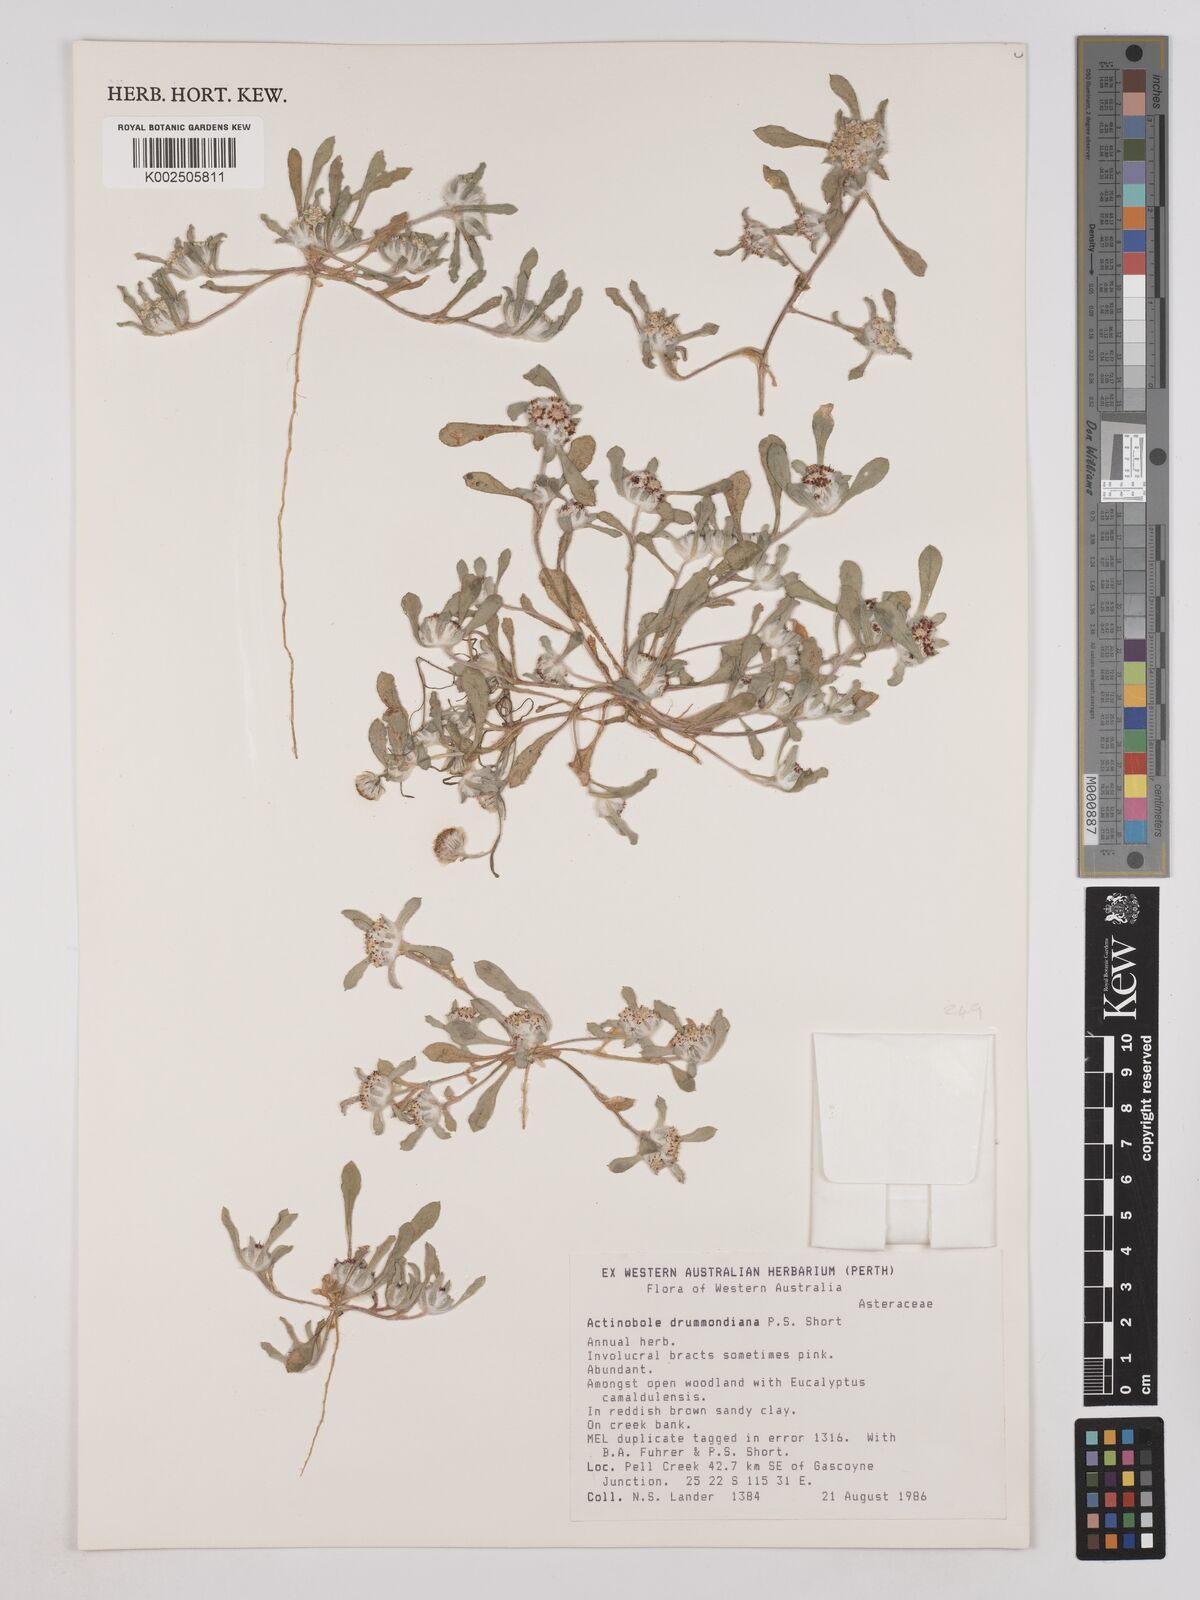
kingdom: Plantae
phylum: Tracheophyta
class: Magnoliopsida
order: Asterales
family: Asteraceae
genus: Actinobole
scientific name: Actinobole drummondiana
